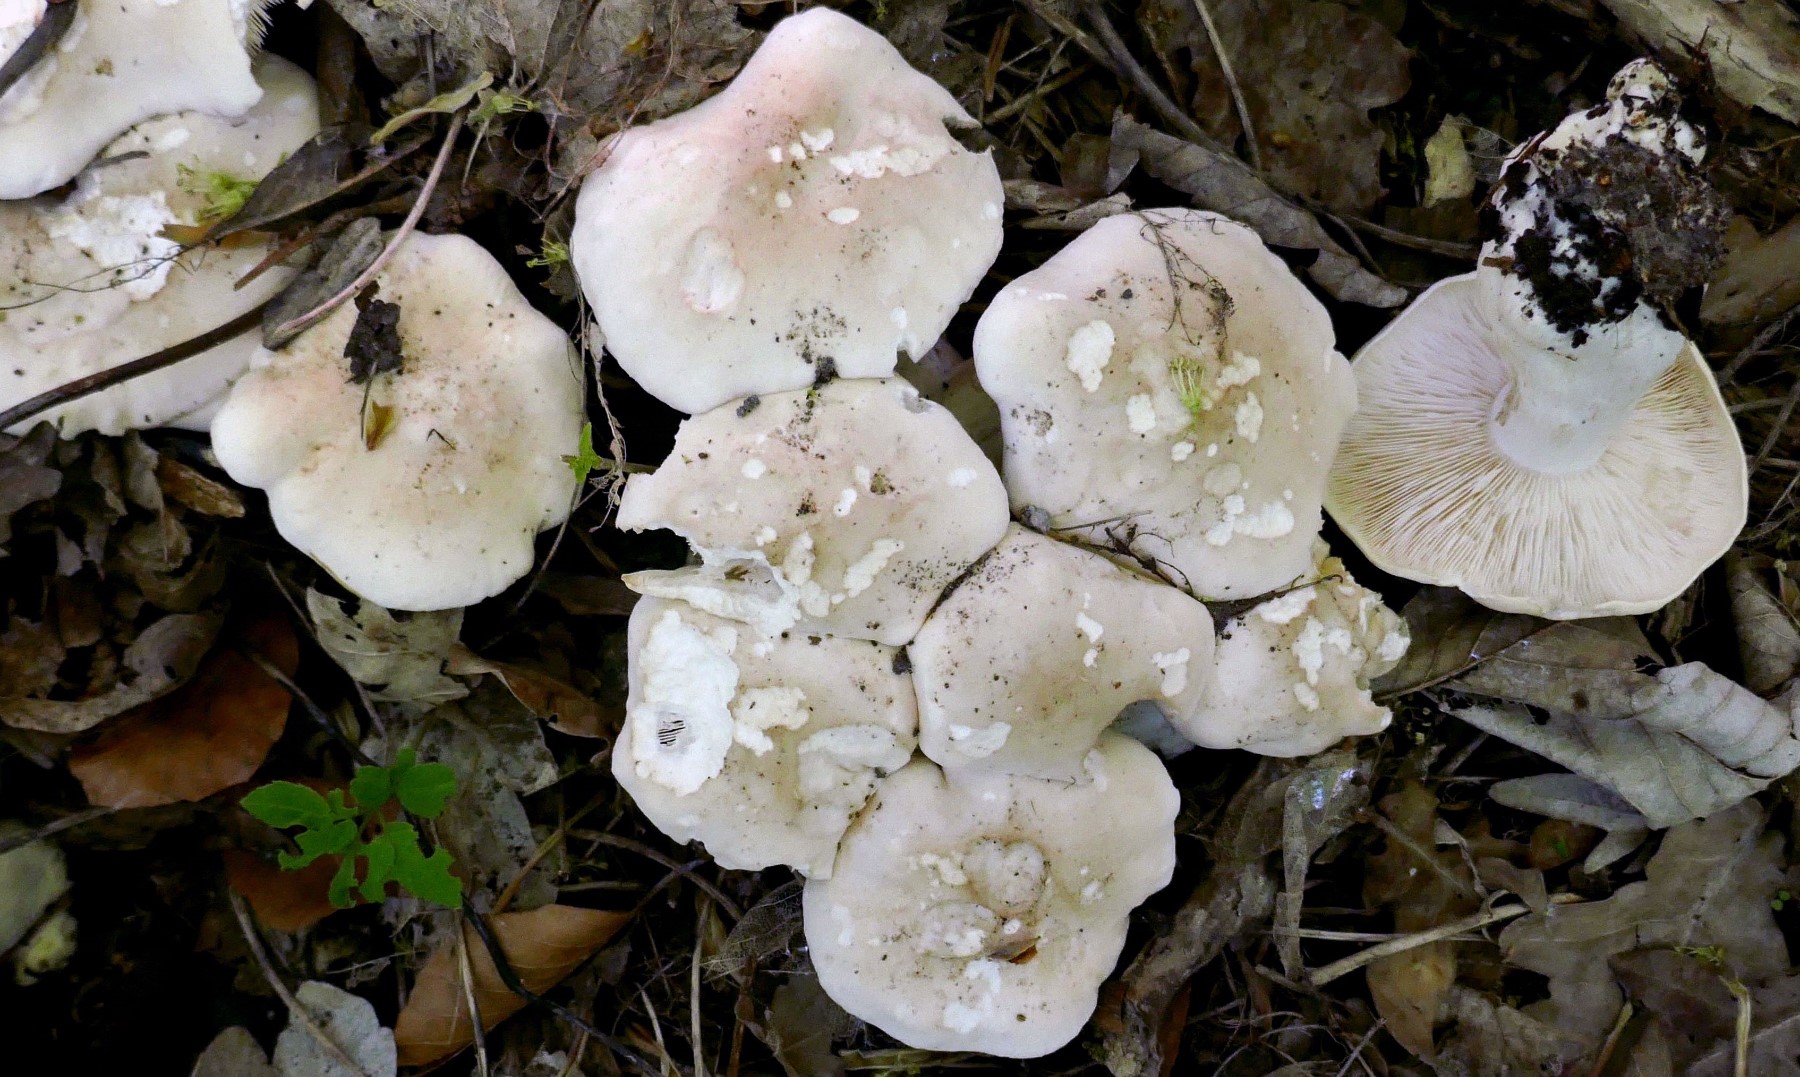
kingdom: Fungi
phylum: Basidiomycota
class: Agaricomycetes
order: Agaricales
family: Lyophyllaceae
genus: Calocybe
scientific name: Calocybe gambosa
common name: vårmusseron
